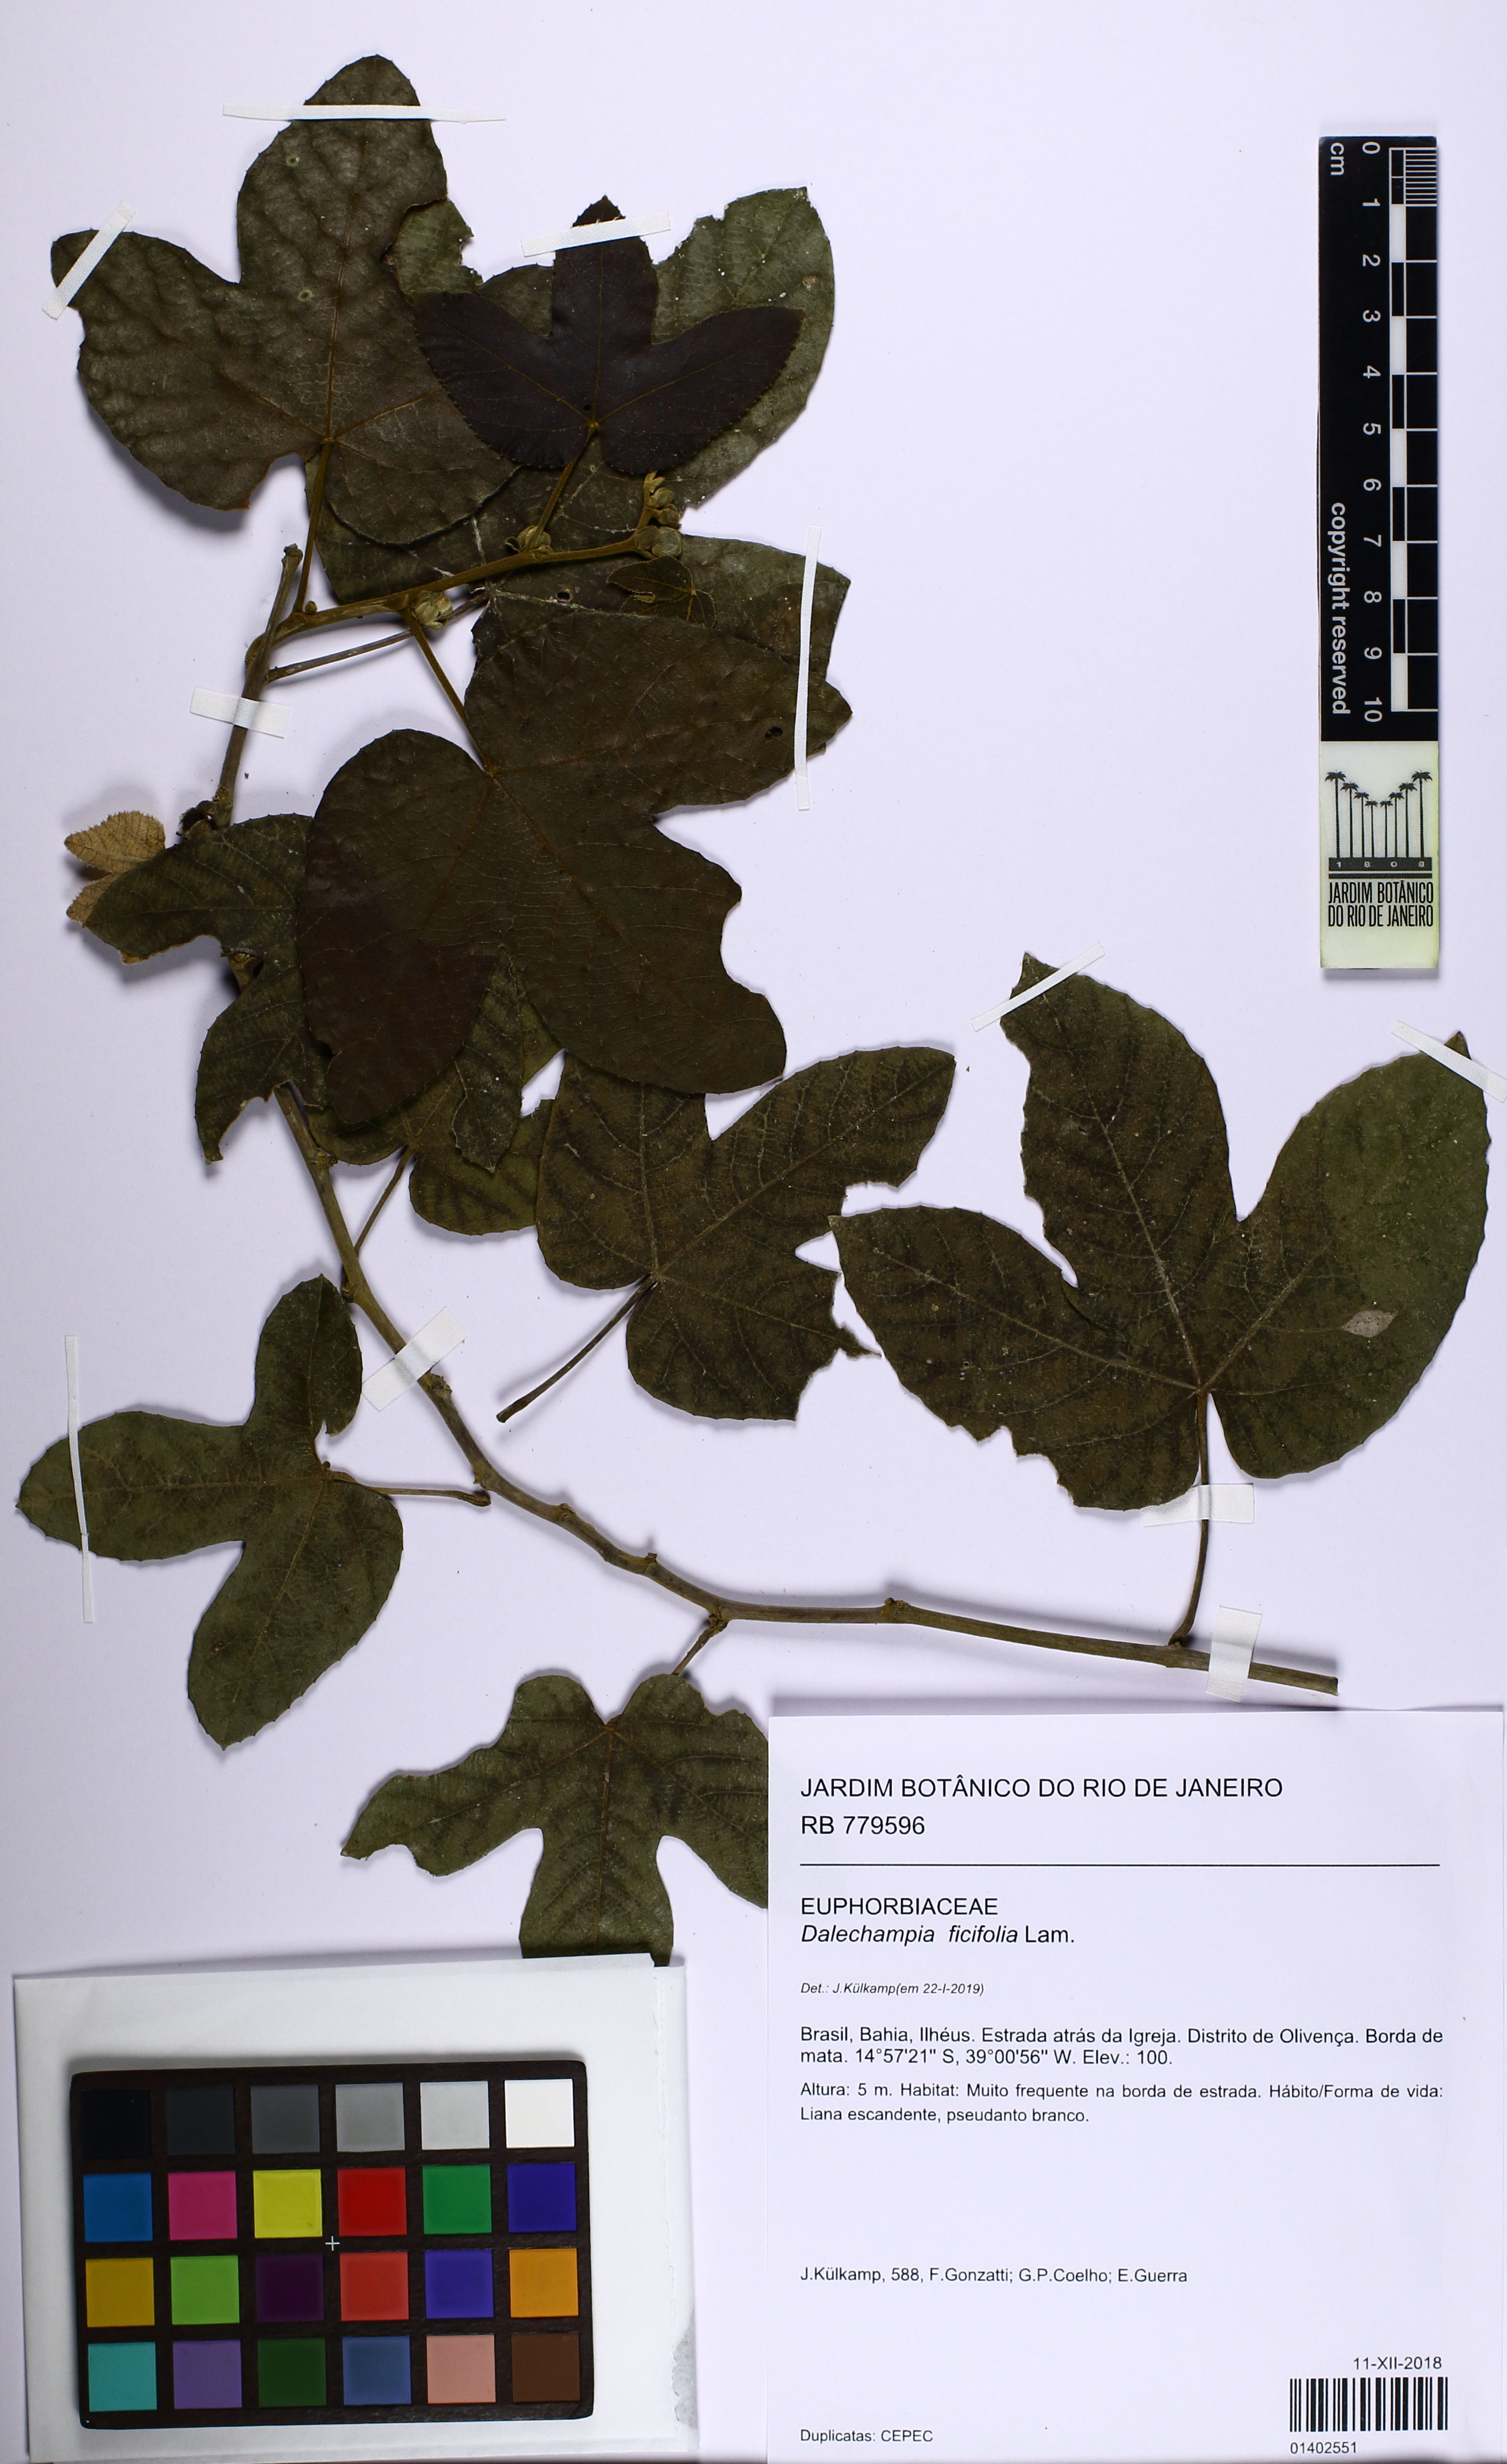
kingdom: Plantae
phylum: Tracheophyta
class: Magnoliopsida
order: Malpighiales
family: Euphorbiaceae
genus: Dalechampia
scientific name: Dalechampia ficifolia
